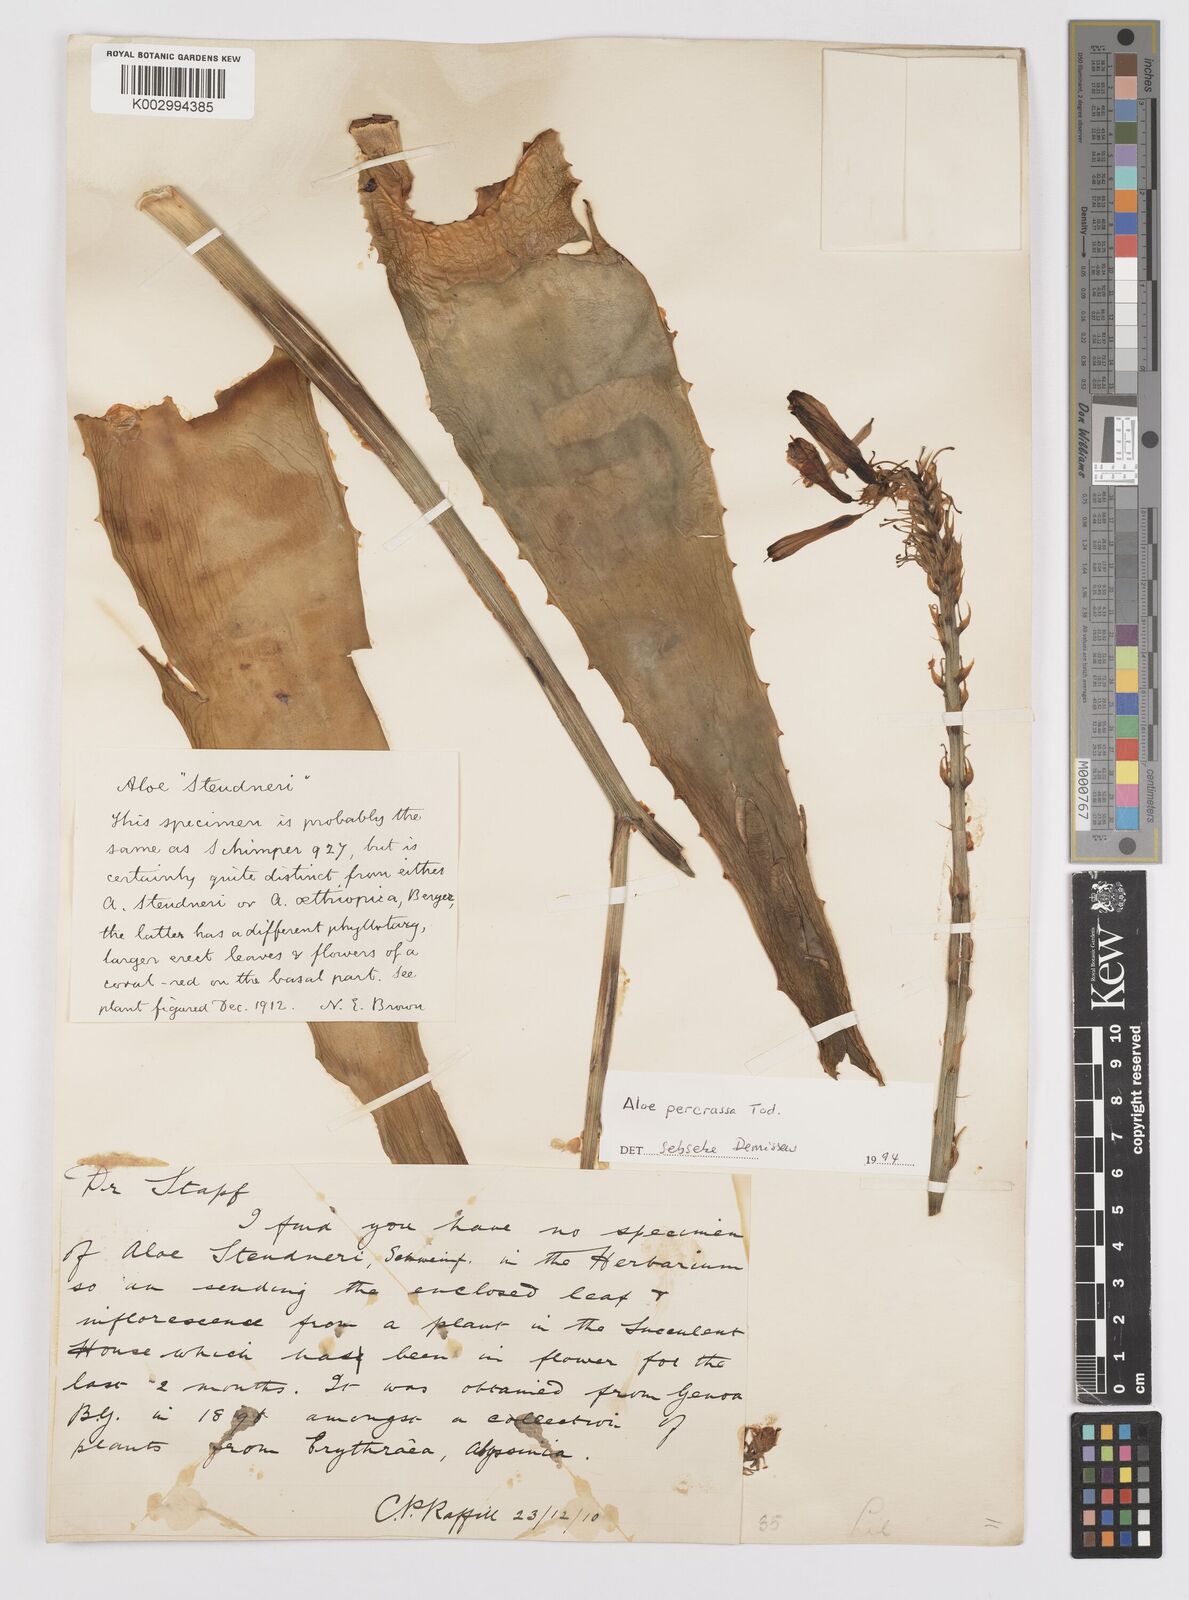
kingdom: Plantae
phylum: Tracheophyta
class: Liliopsida
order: Asparagales
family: Asphodelaceae
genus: Aloe
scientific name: Aloe
